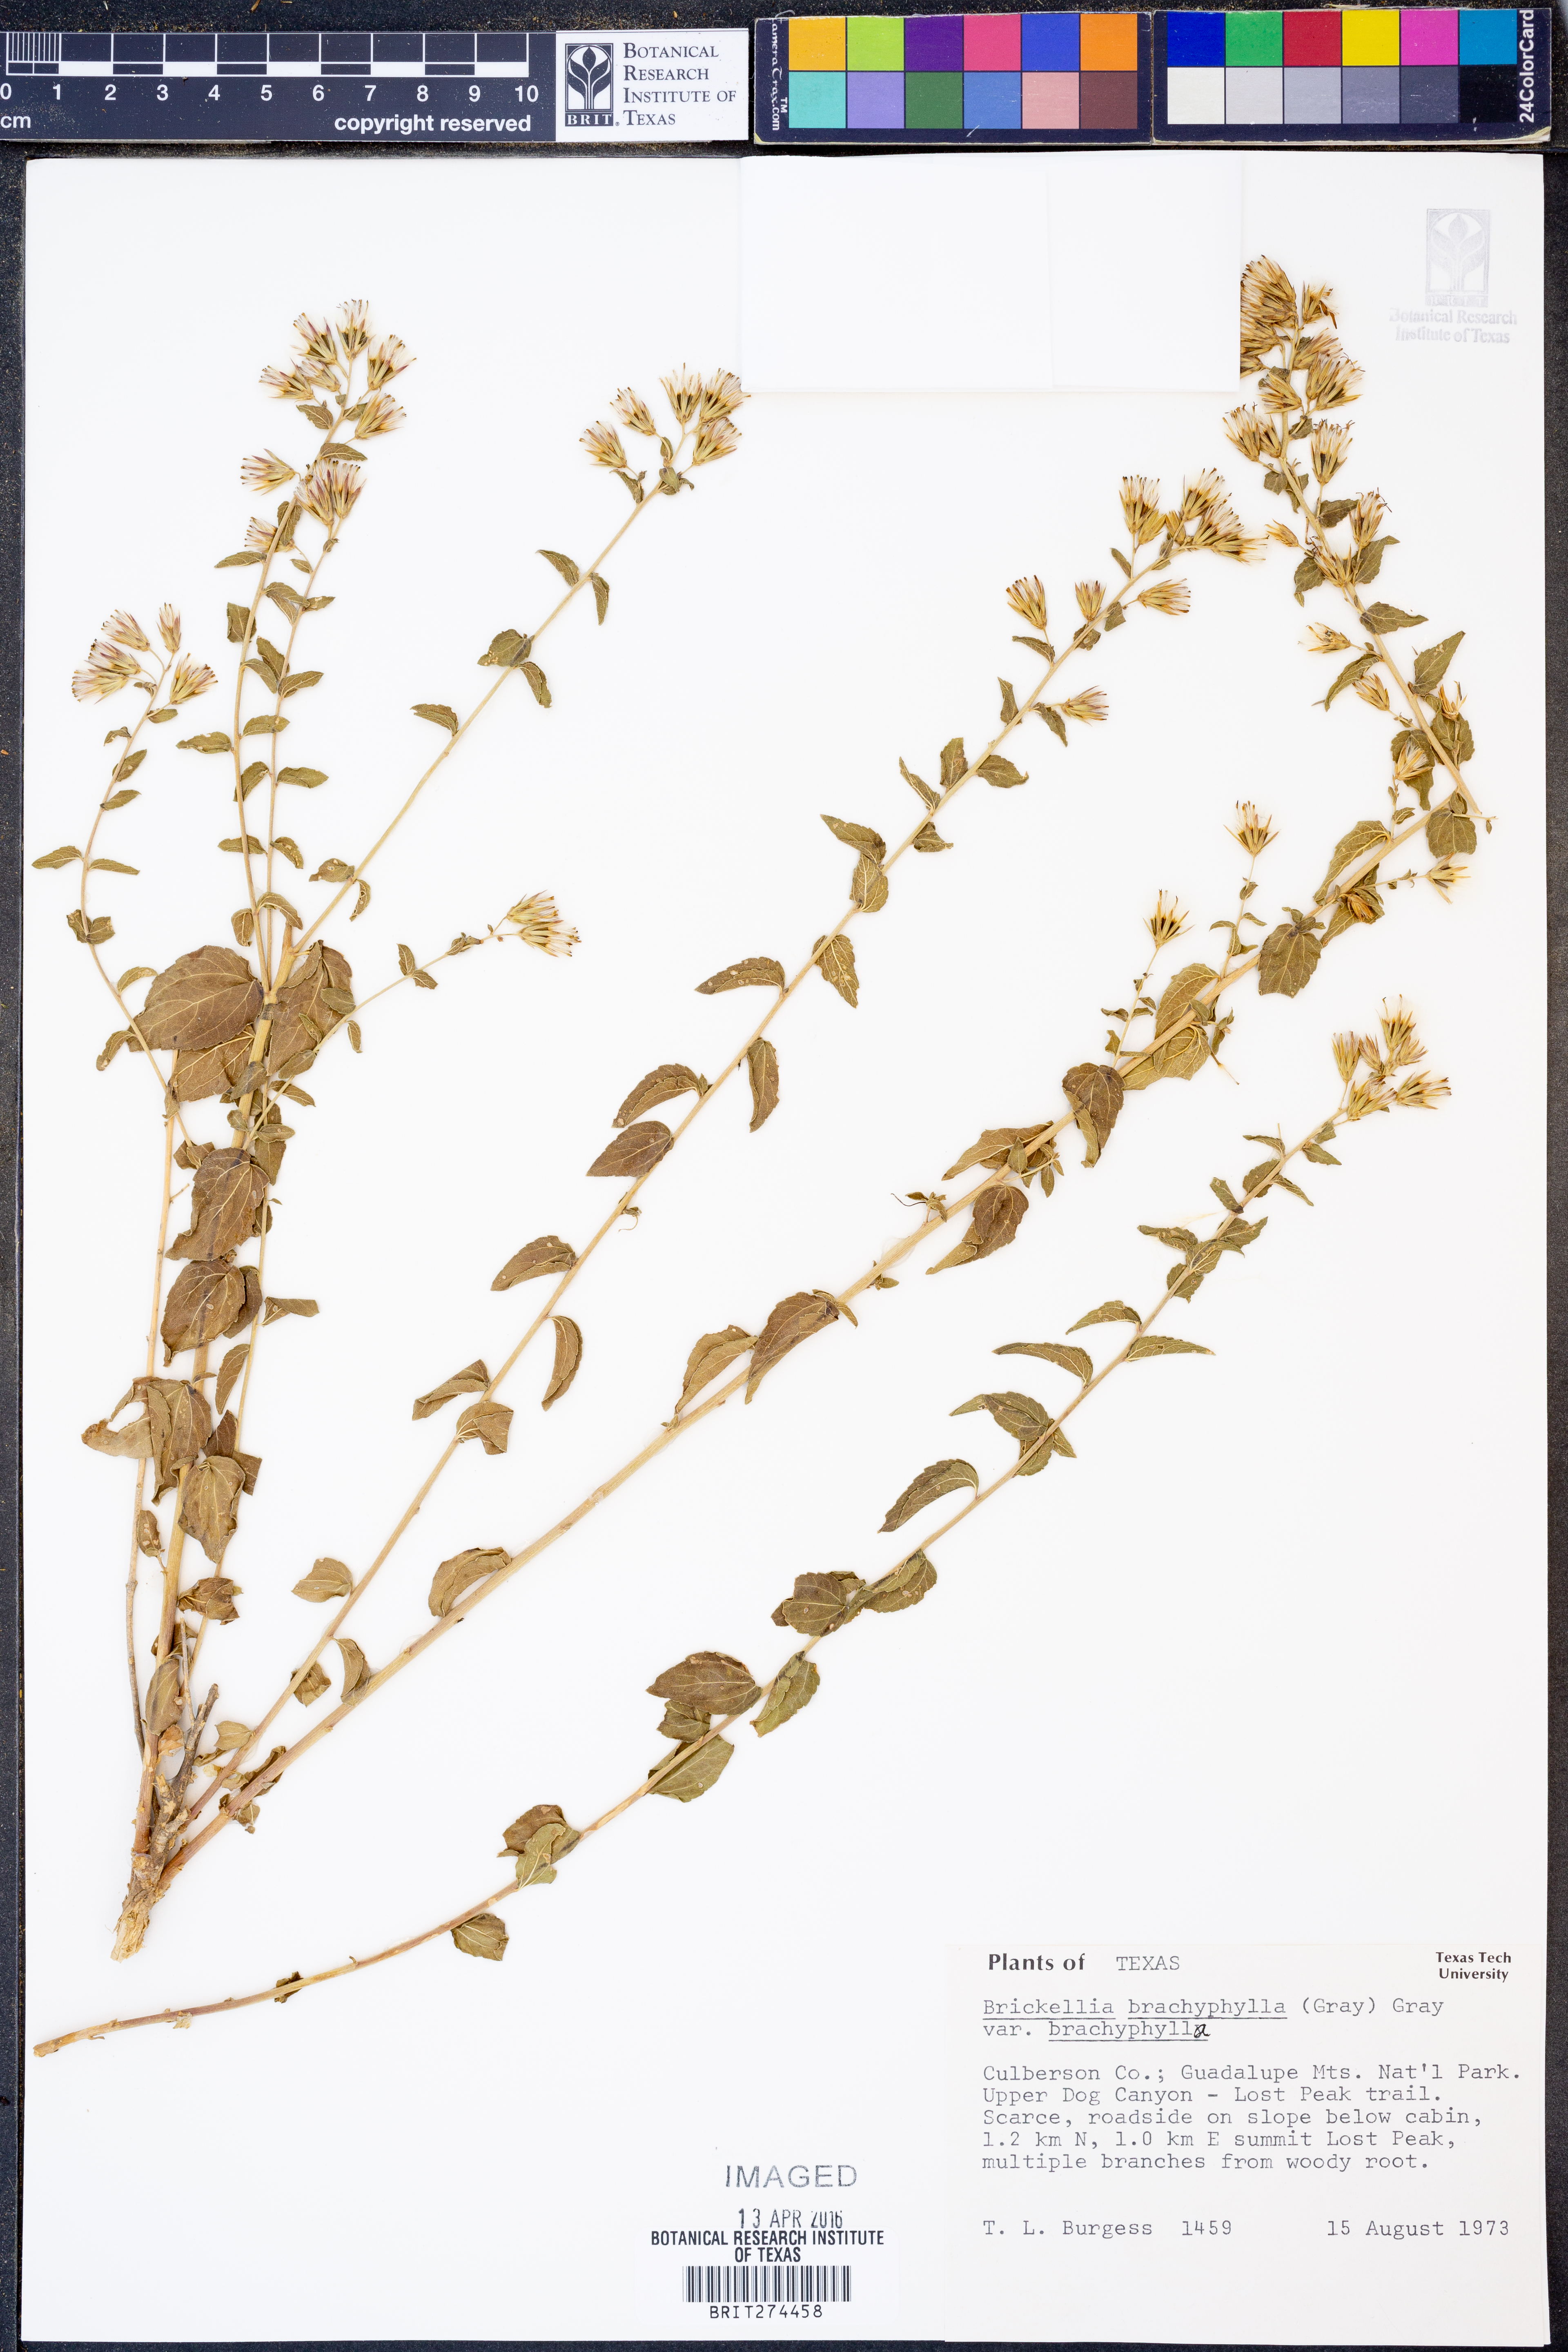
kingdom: Plantae
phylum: Tracheophyta
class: Magnoliopsida
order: Asterales
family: Asteraceae
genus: Brickellia
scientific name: Brickellia brachyphylla
